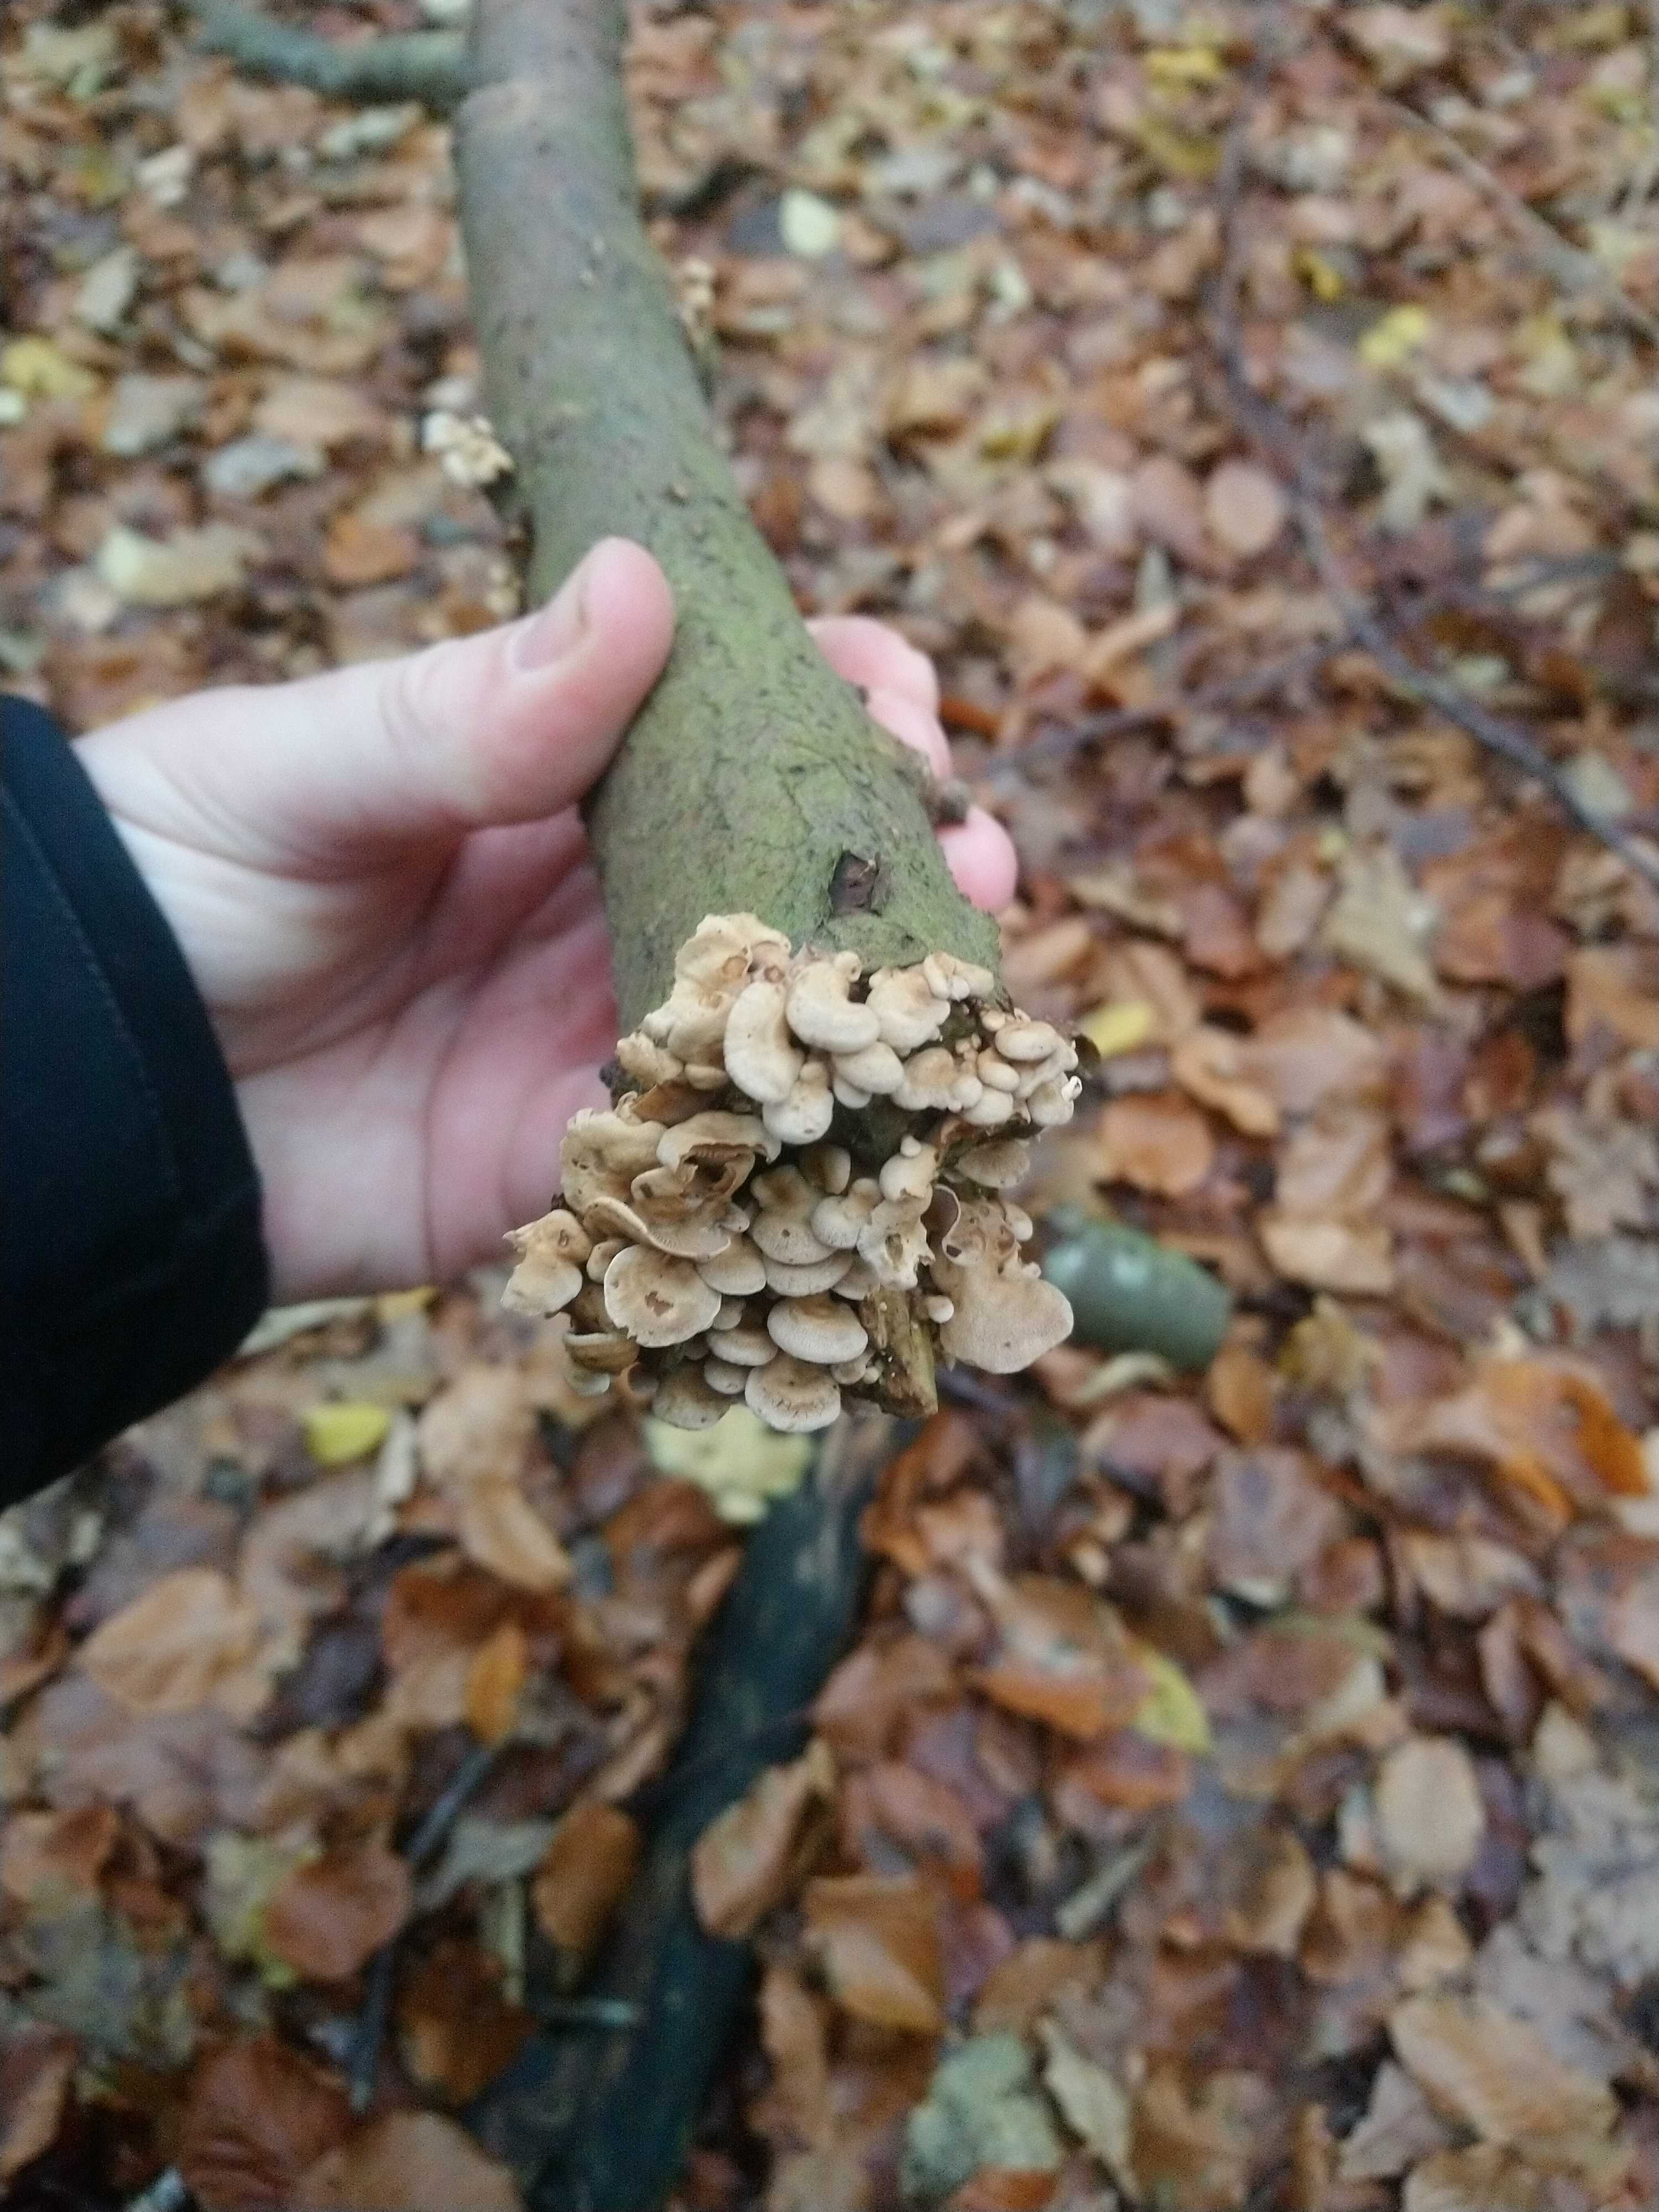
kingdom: Fungi
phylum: Basidiomycota
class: Agaricomycetes
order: Agaricales
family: Mycenaceae
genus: Panellus
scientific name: Panellus stipticus
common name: kliddet epaulethat
